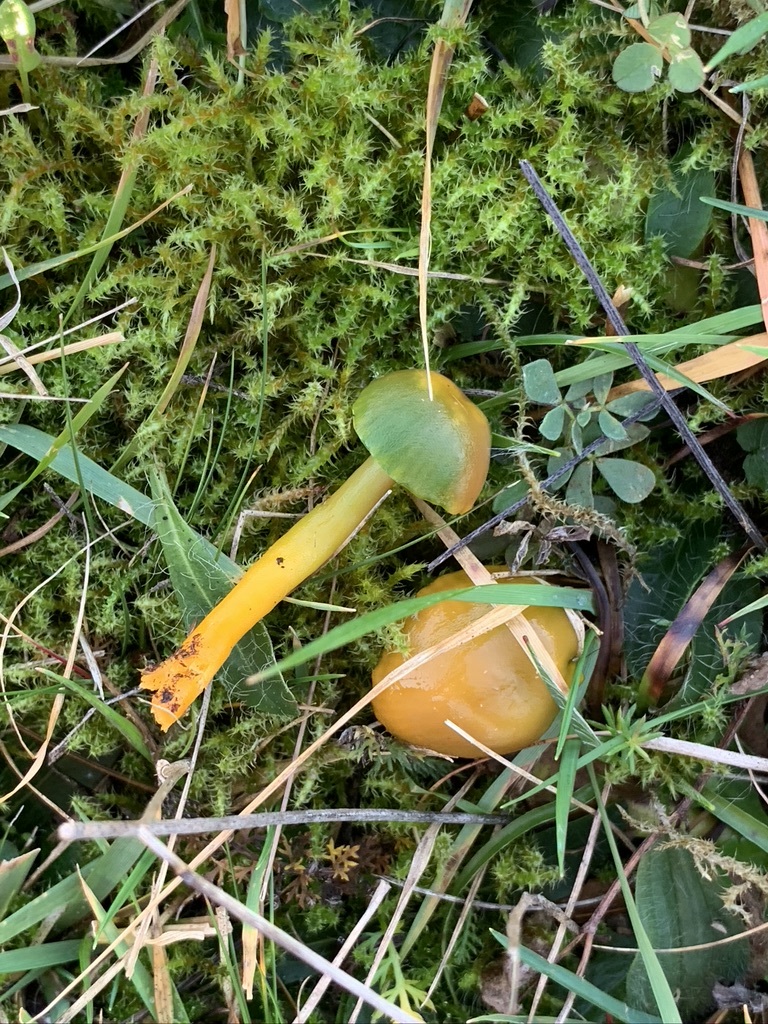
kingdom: Fungi
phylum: Basidiomycota
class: Agaricomycetes
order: Agaricales
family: Hygrophoraceae
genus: Gliophorus
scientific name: Gliophorus psittacinus
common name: papegøje-vokshat
